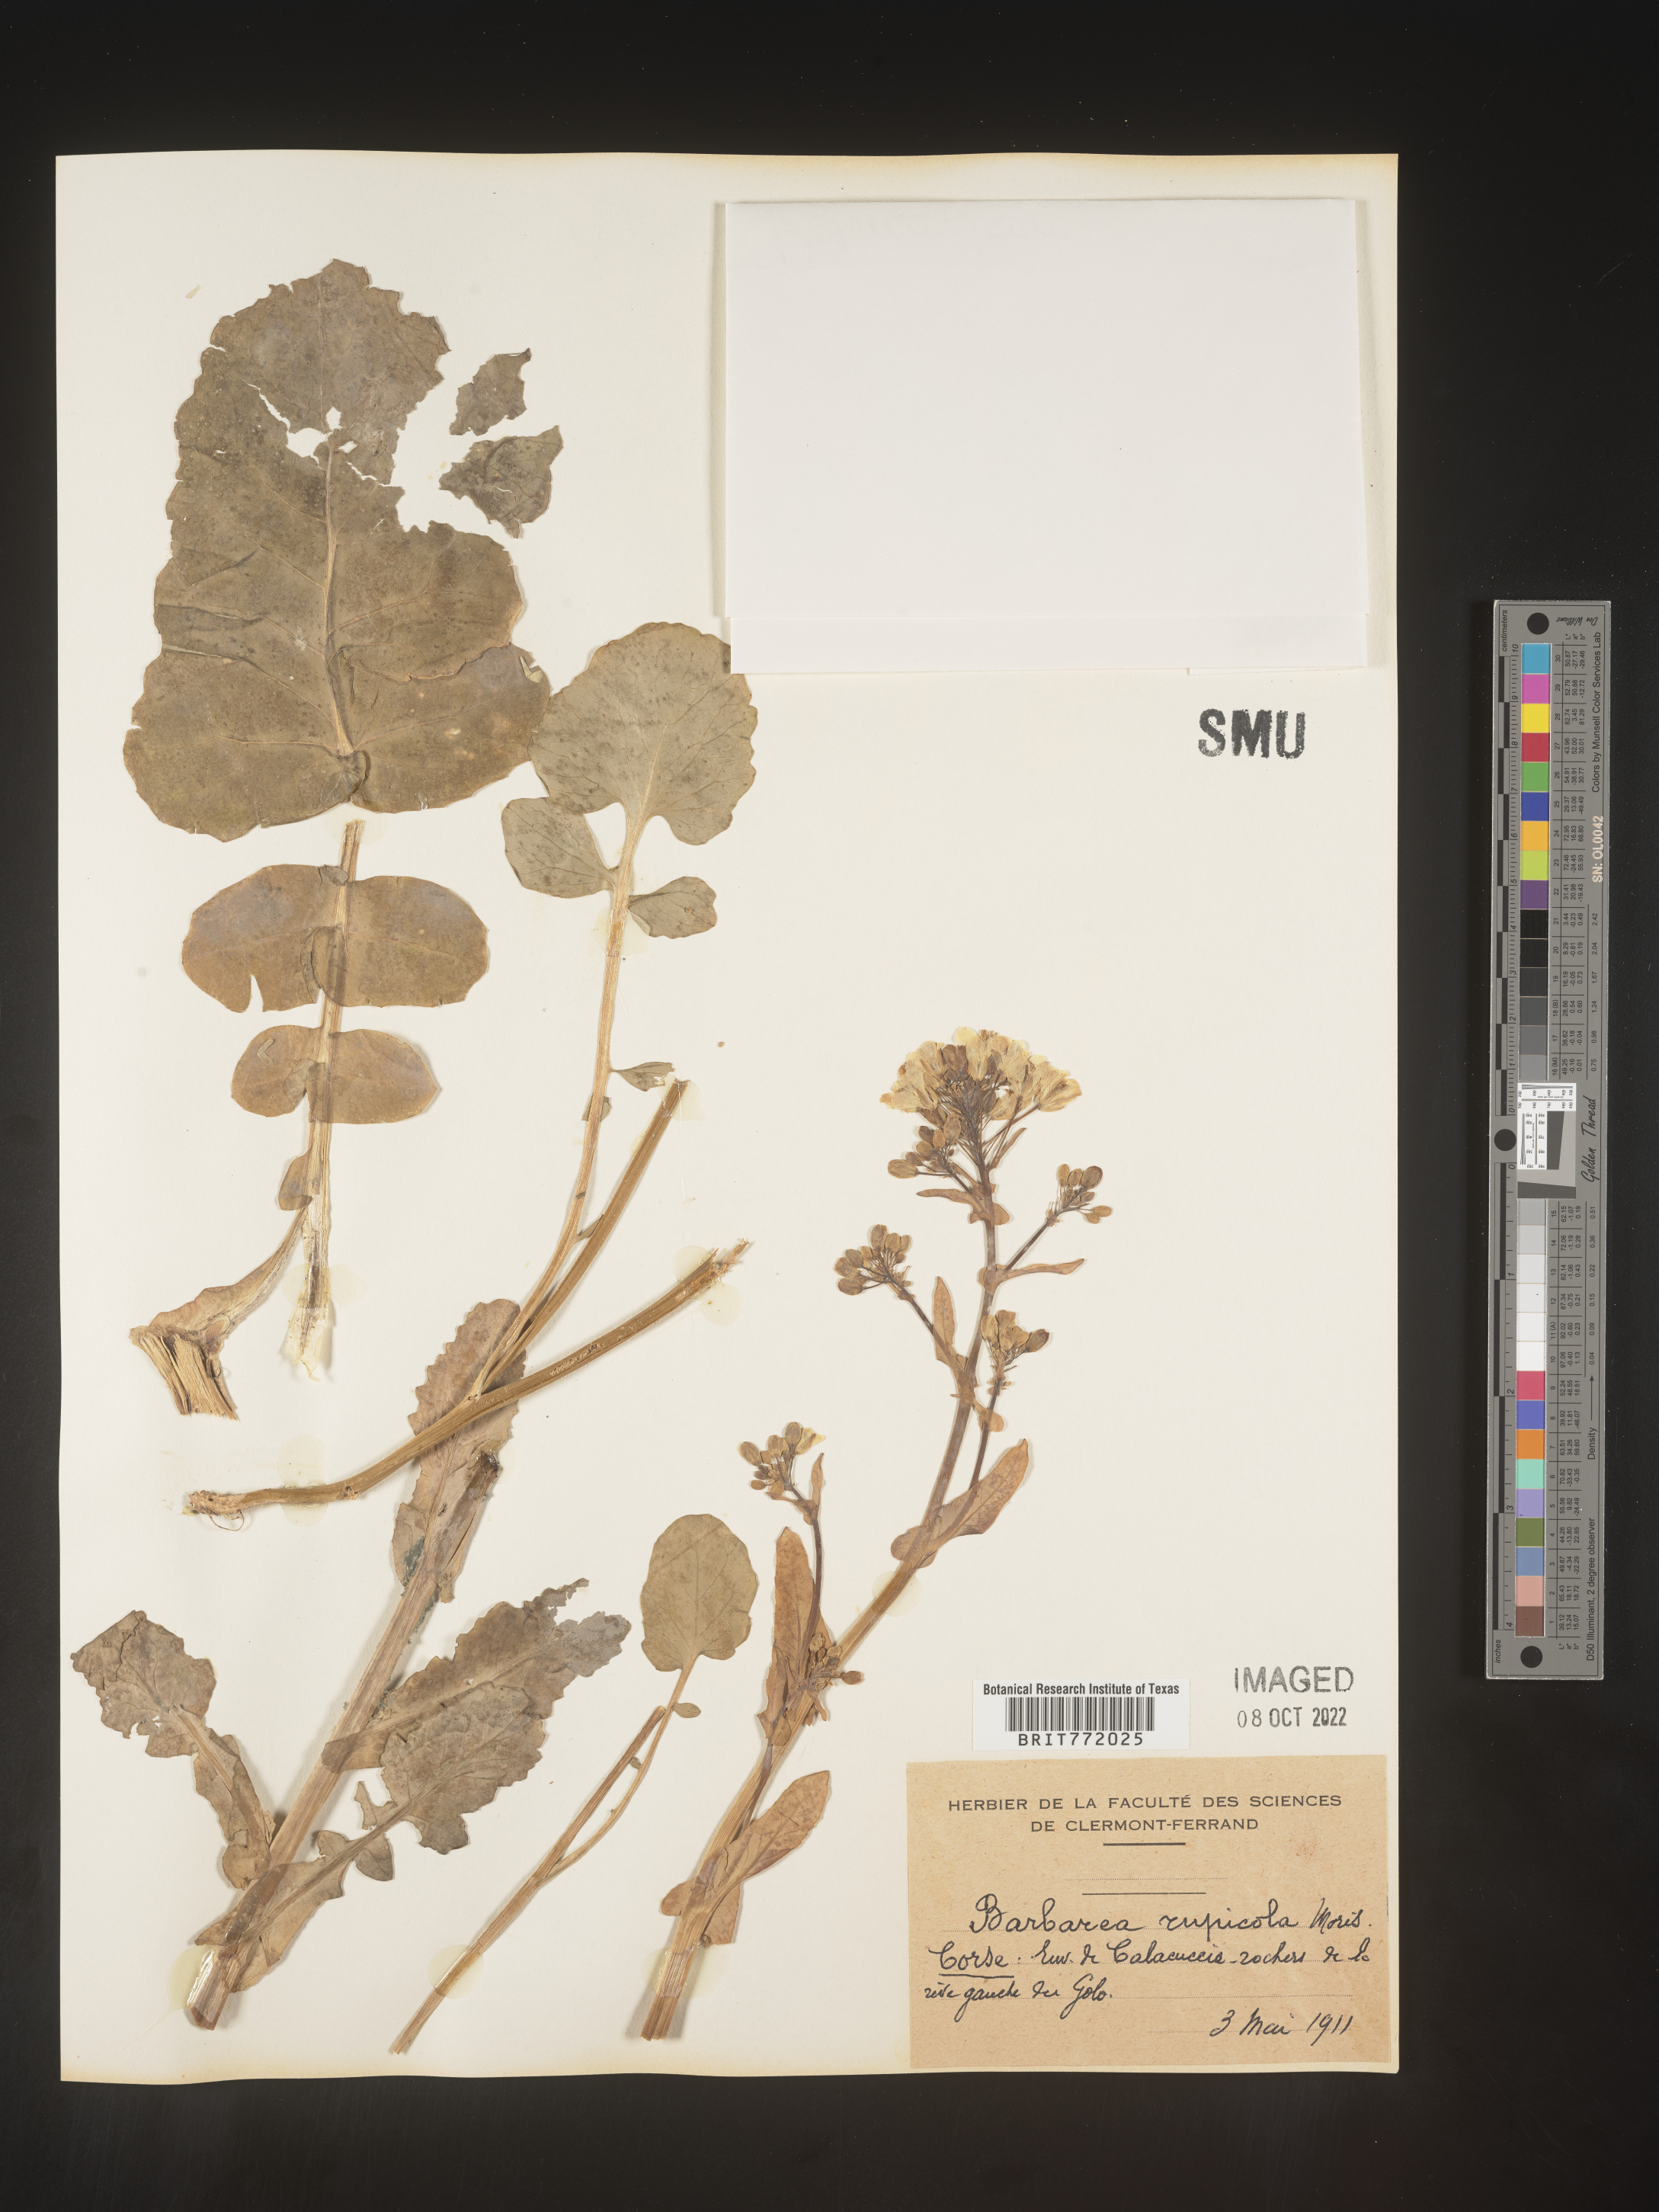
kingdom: Plantae
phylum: Tracheophyta
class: Magnoliopsida
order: Brassicales
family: Brassicaceae
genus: Barbarea
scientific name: Barbarea
